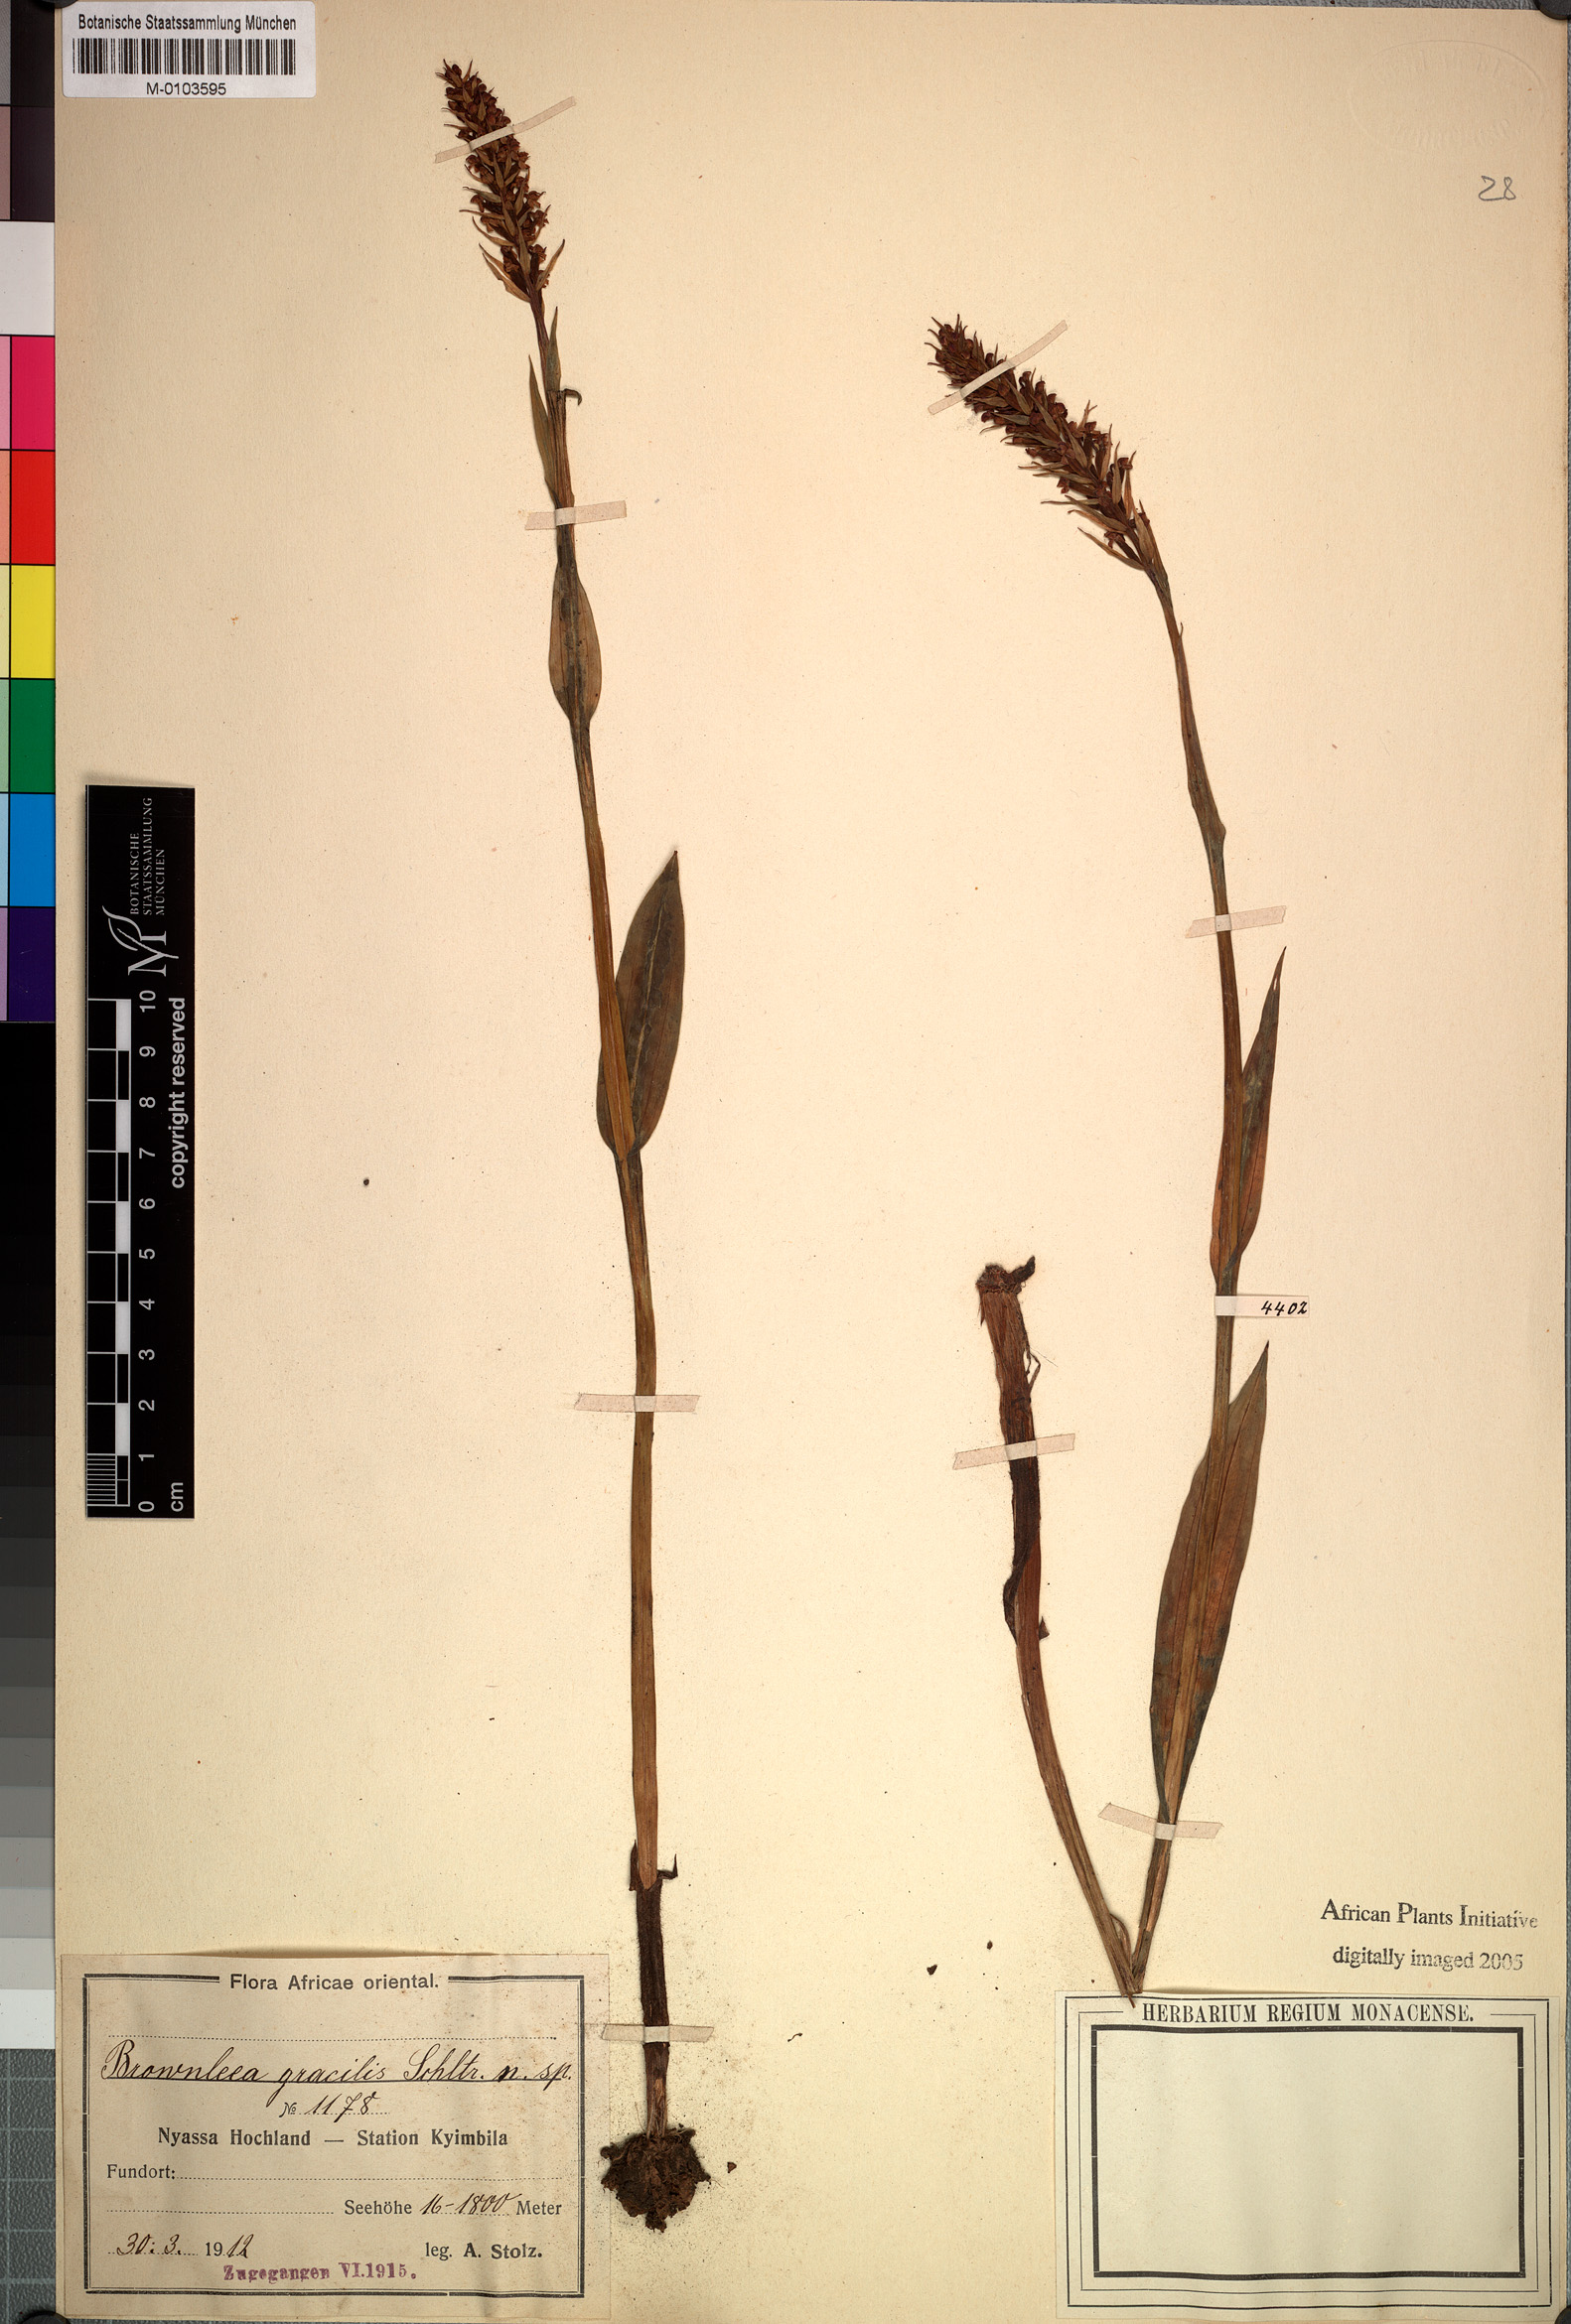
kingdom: Plantae
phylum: Tracheophyta
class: Liliopsida
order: Asparagales
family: Orchidaceae
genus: Brownleea
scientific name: Brownleea parviflora
